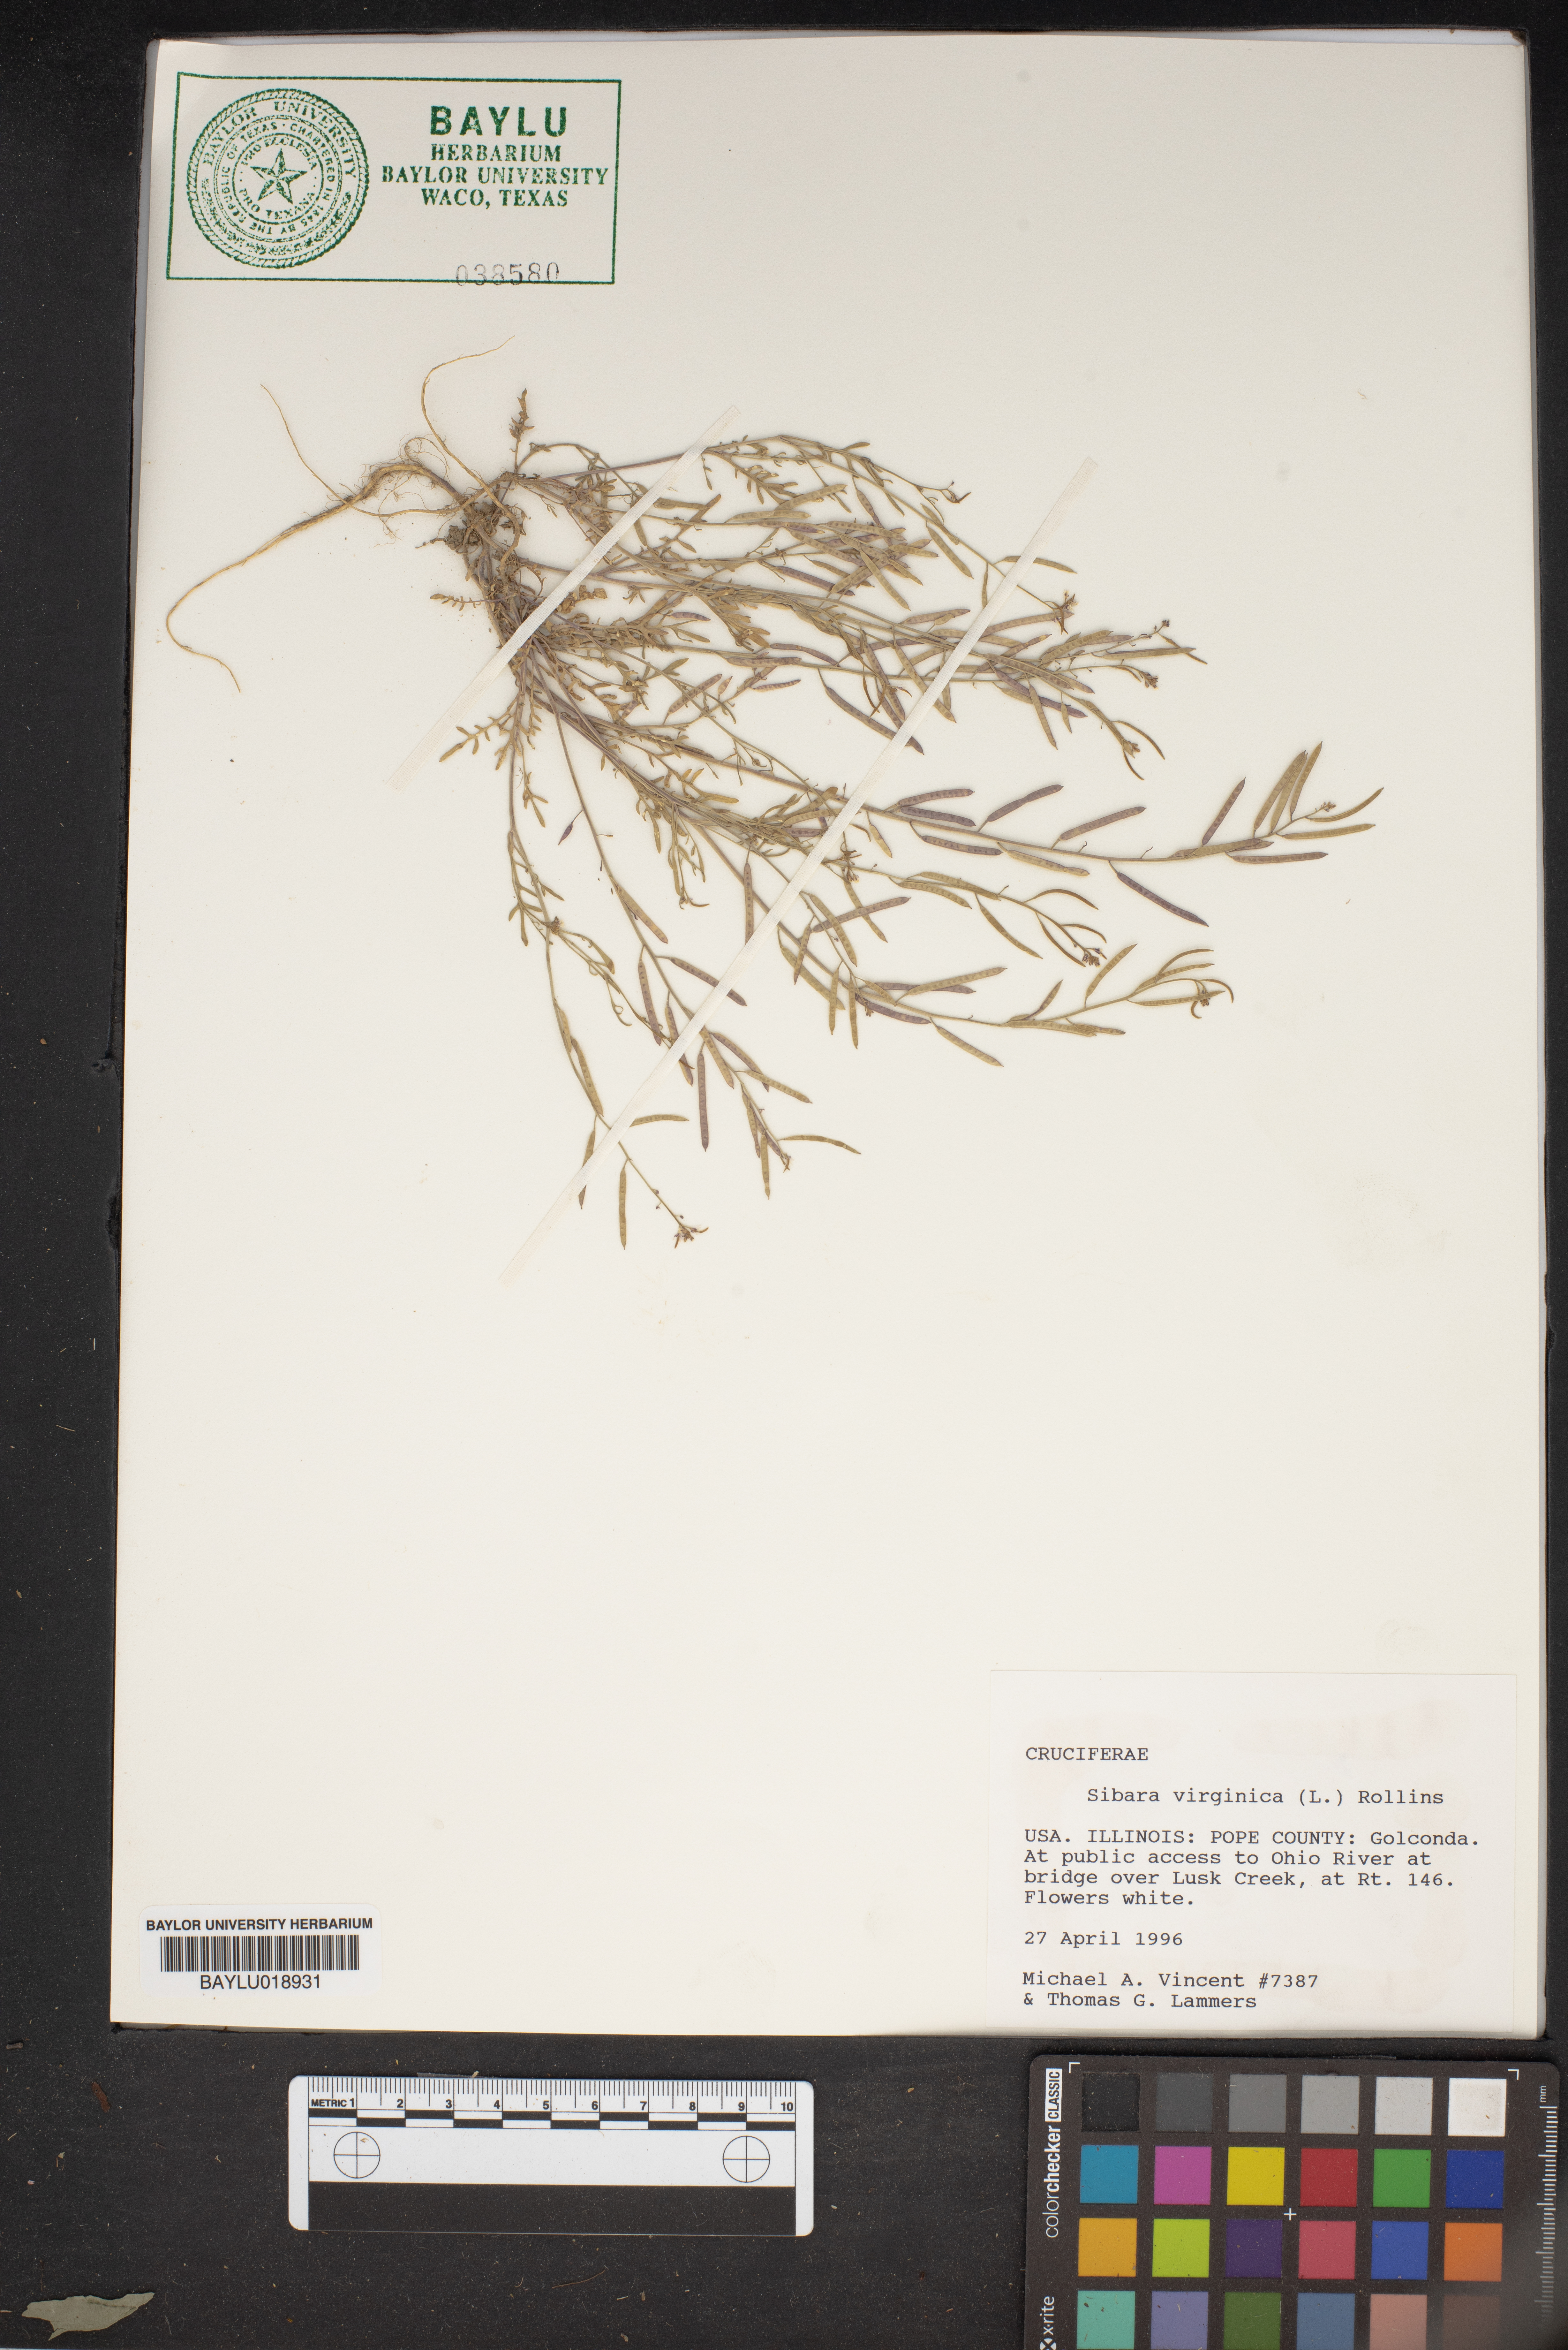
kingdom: Plantae
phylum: Tracheophyta
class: Magnoliopsida
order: Brassicales
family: Brassicaceae
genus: Planodes
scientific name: Planodes virginicum
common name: Virginia cress
